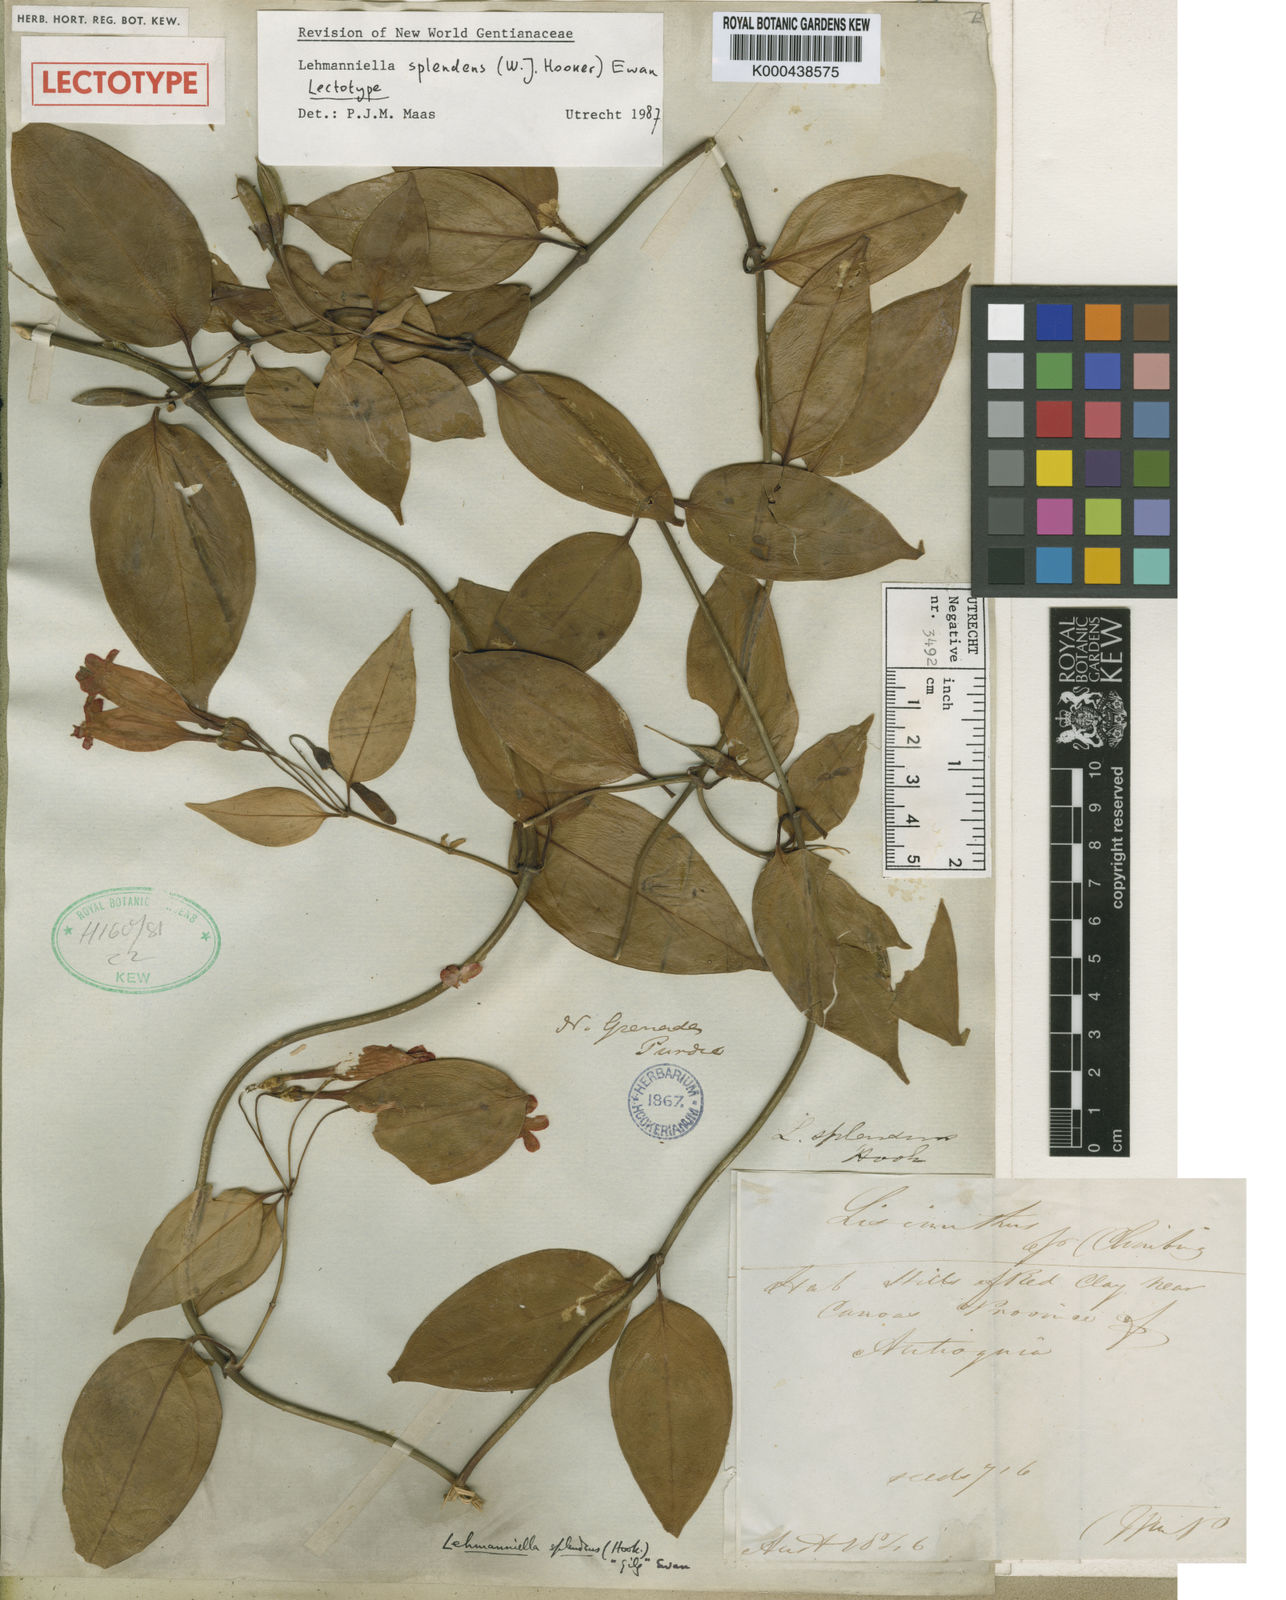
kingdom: Plantae
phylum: Tracheophyta
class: Magnoliopsida
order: Gentianales
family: Gentianaceae
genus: Lehmanniella
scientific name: Lehmanniella splendens
